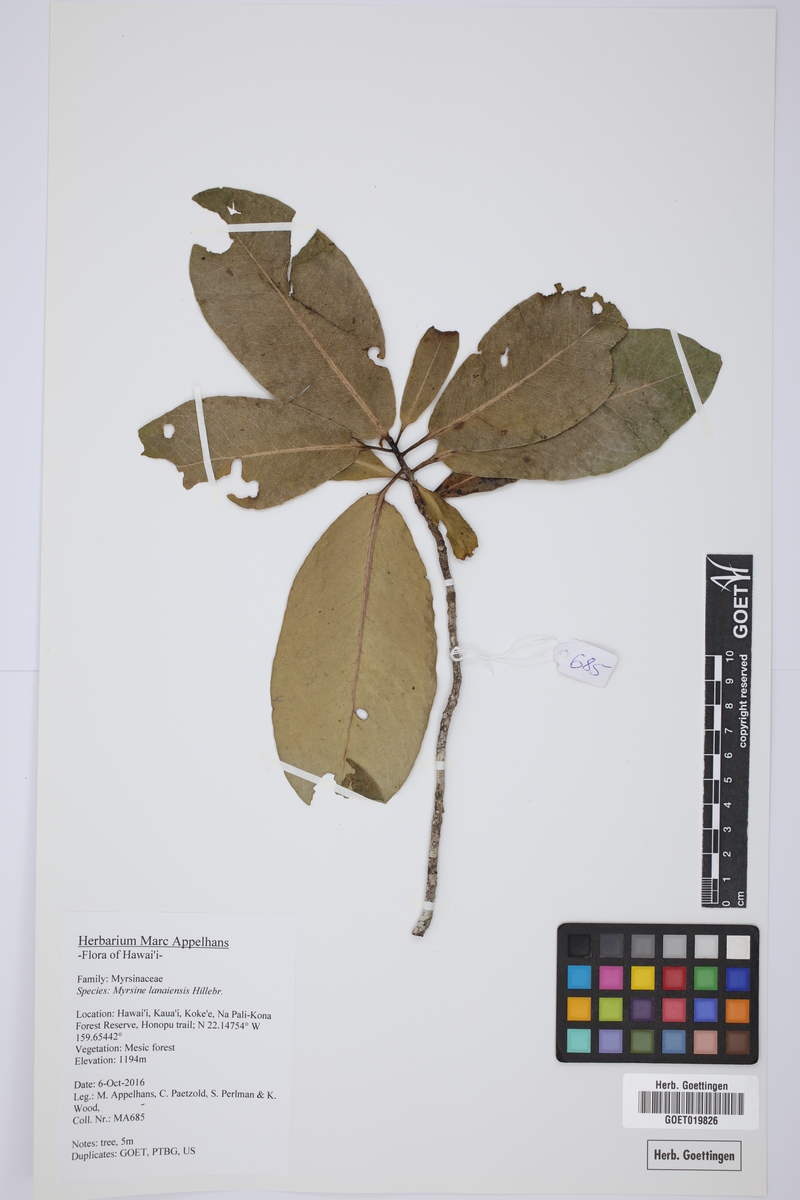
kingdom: Plantae
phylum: Tracheophyta
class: Magnoliopsida
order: Ericales
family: Primulaceae
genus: Myrsine
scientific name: Myrsine lanaiensis
